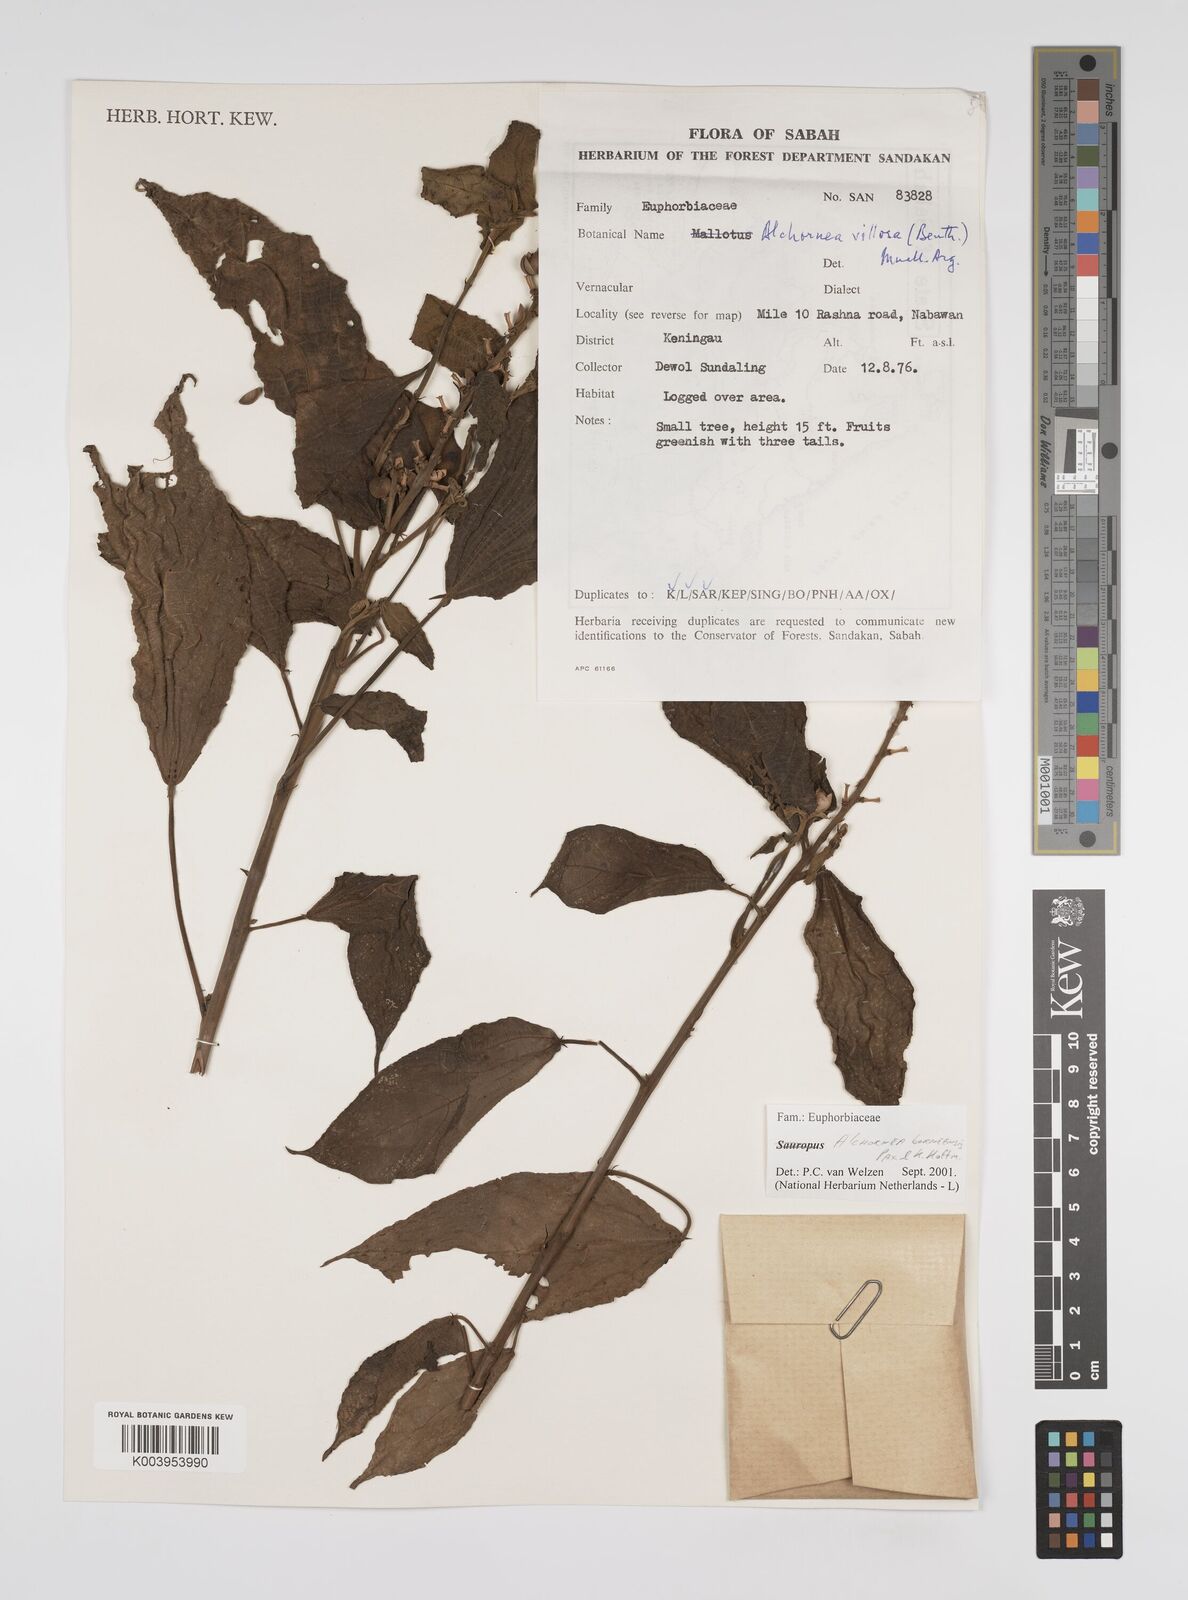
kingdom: Plantae
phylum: Tracheophyta
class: Magnoliopsida
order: Malpighiales
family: Euphorbiaceae
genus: Alchornea
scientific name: Alchornea parviflora
